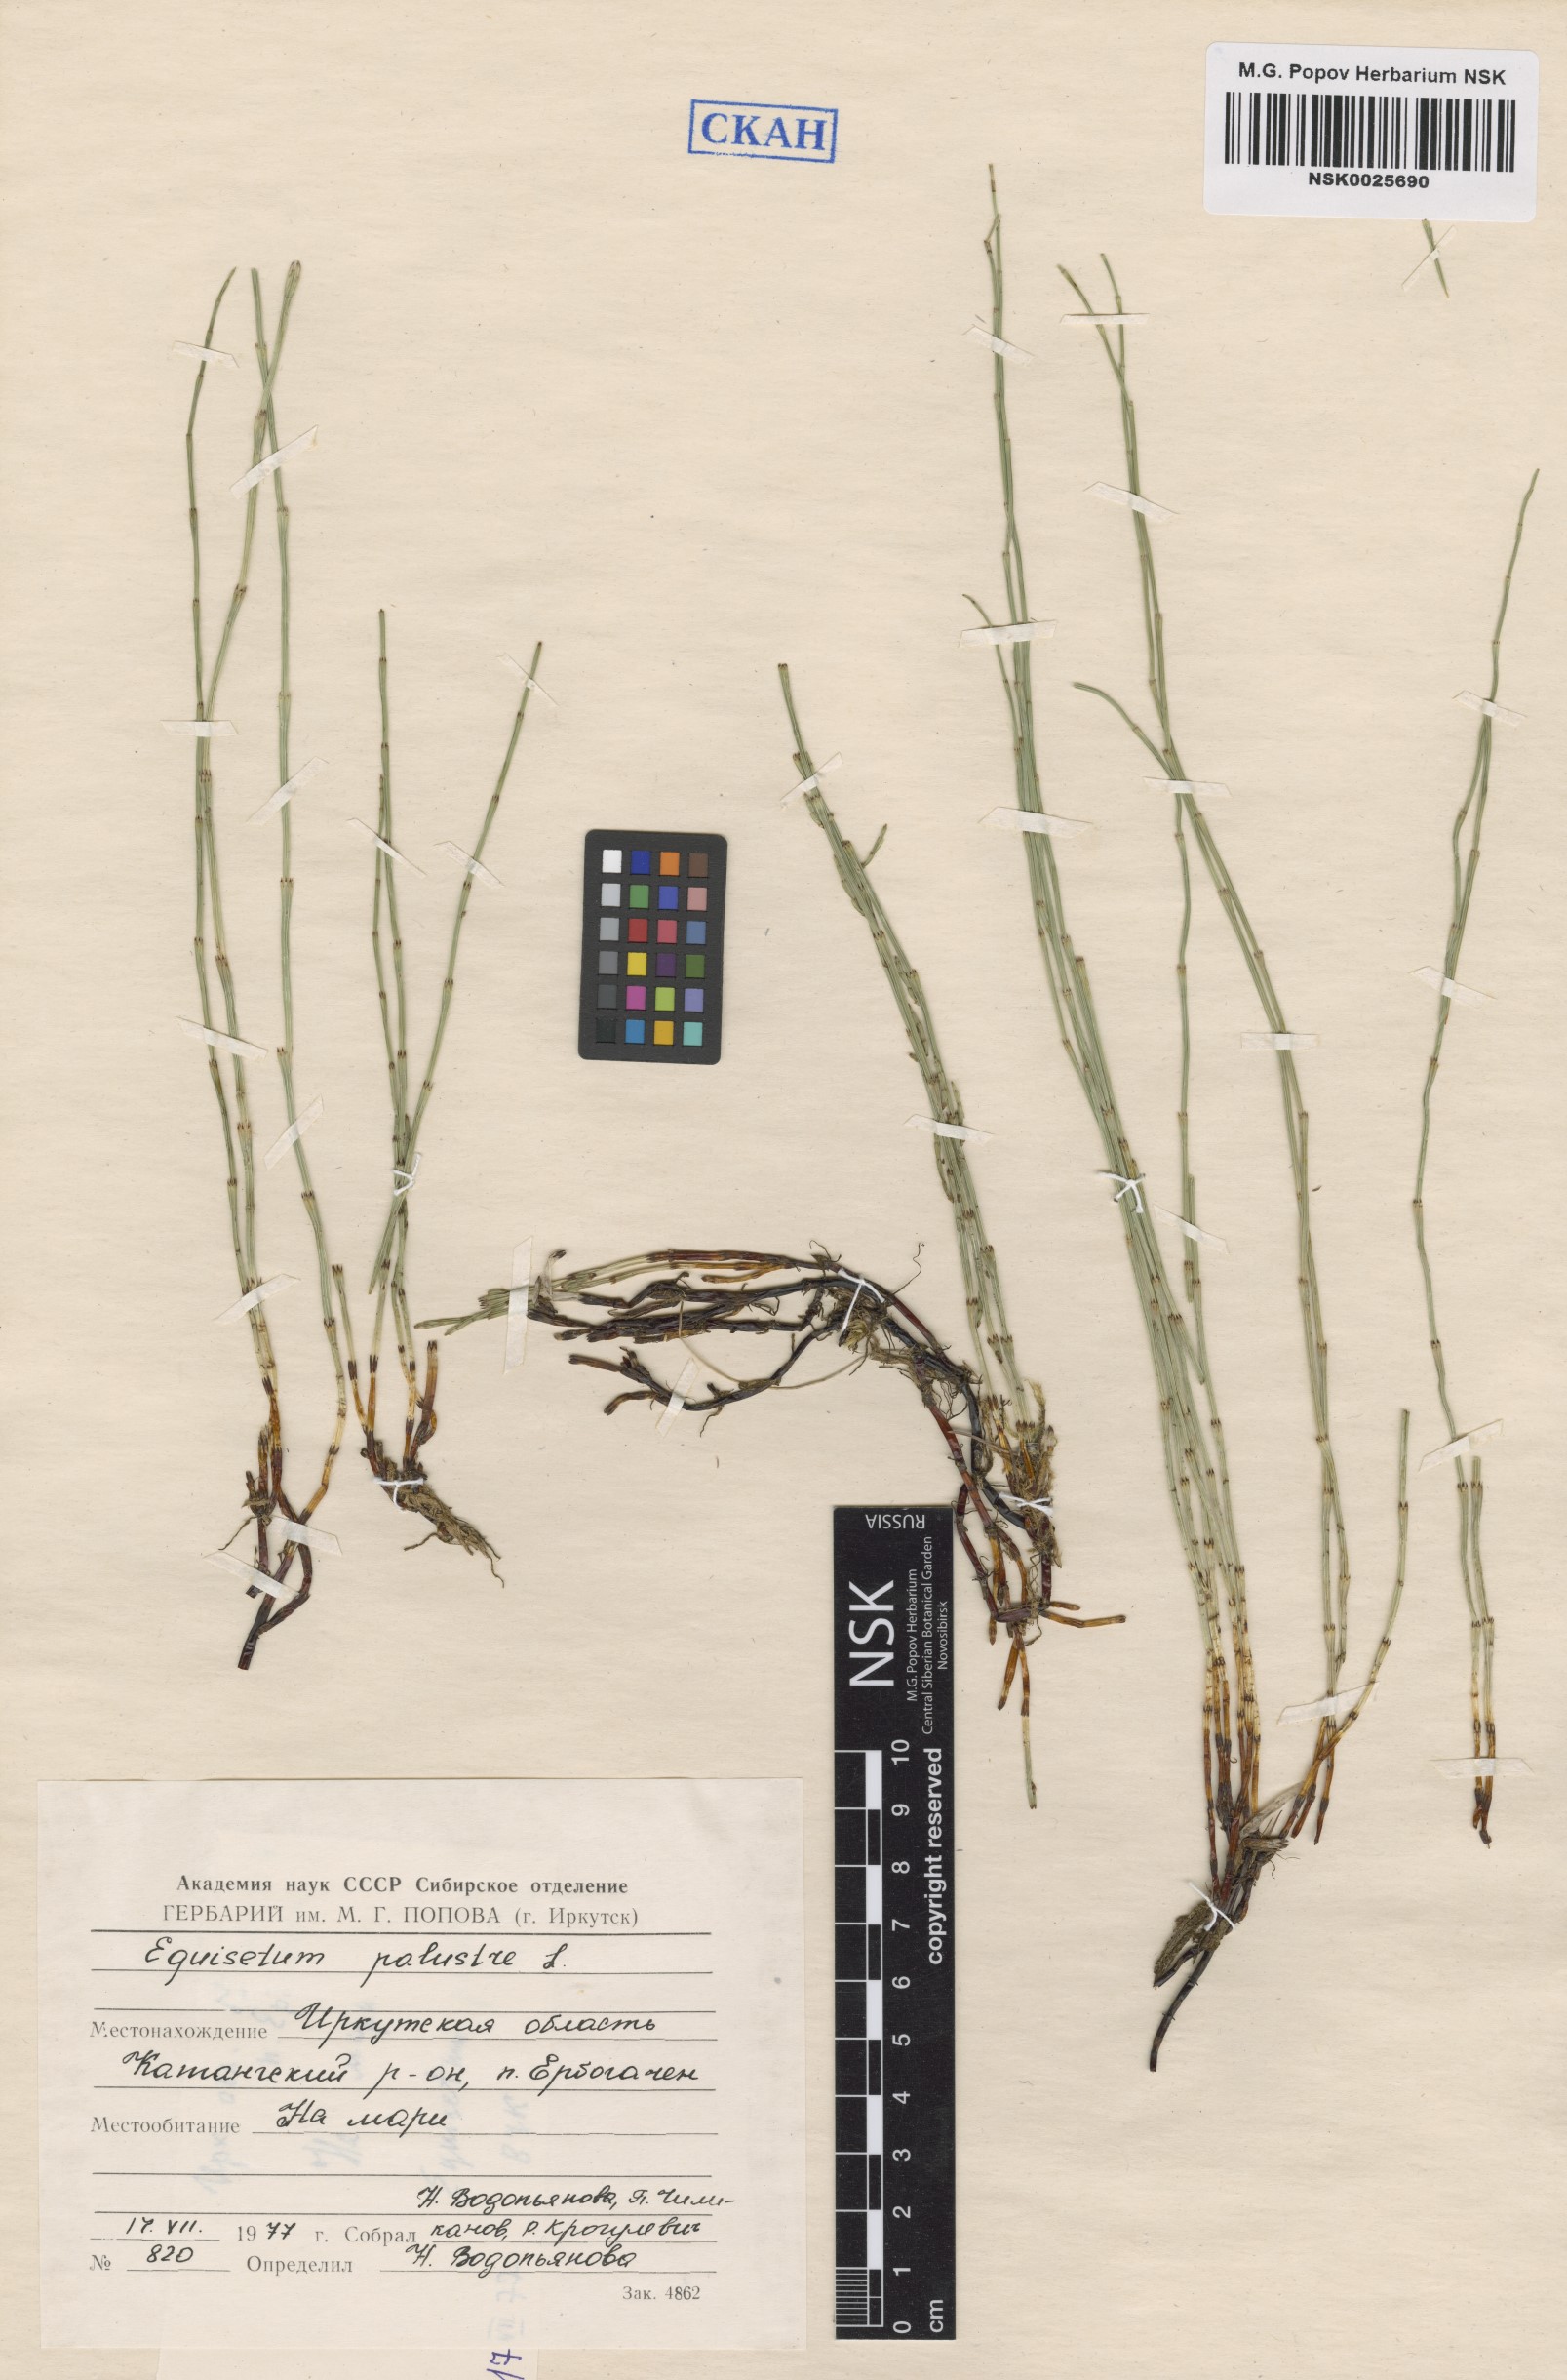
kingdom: Plantae
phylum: Tracheophyta
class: Polypodiopsida
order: Equisetales
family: Equisetaceae
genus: Equisetum
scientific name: Equisetum palustre
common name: Marsh horsetail
